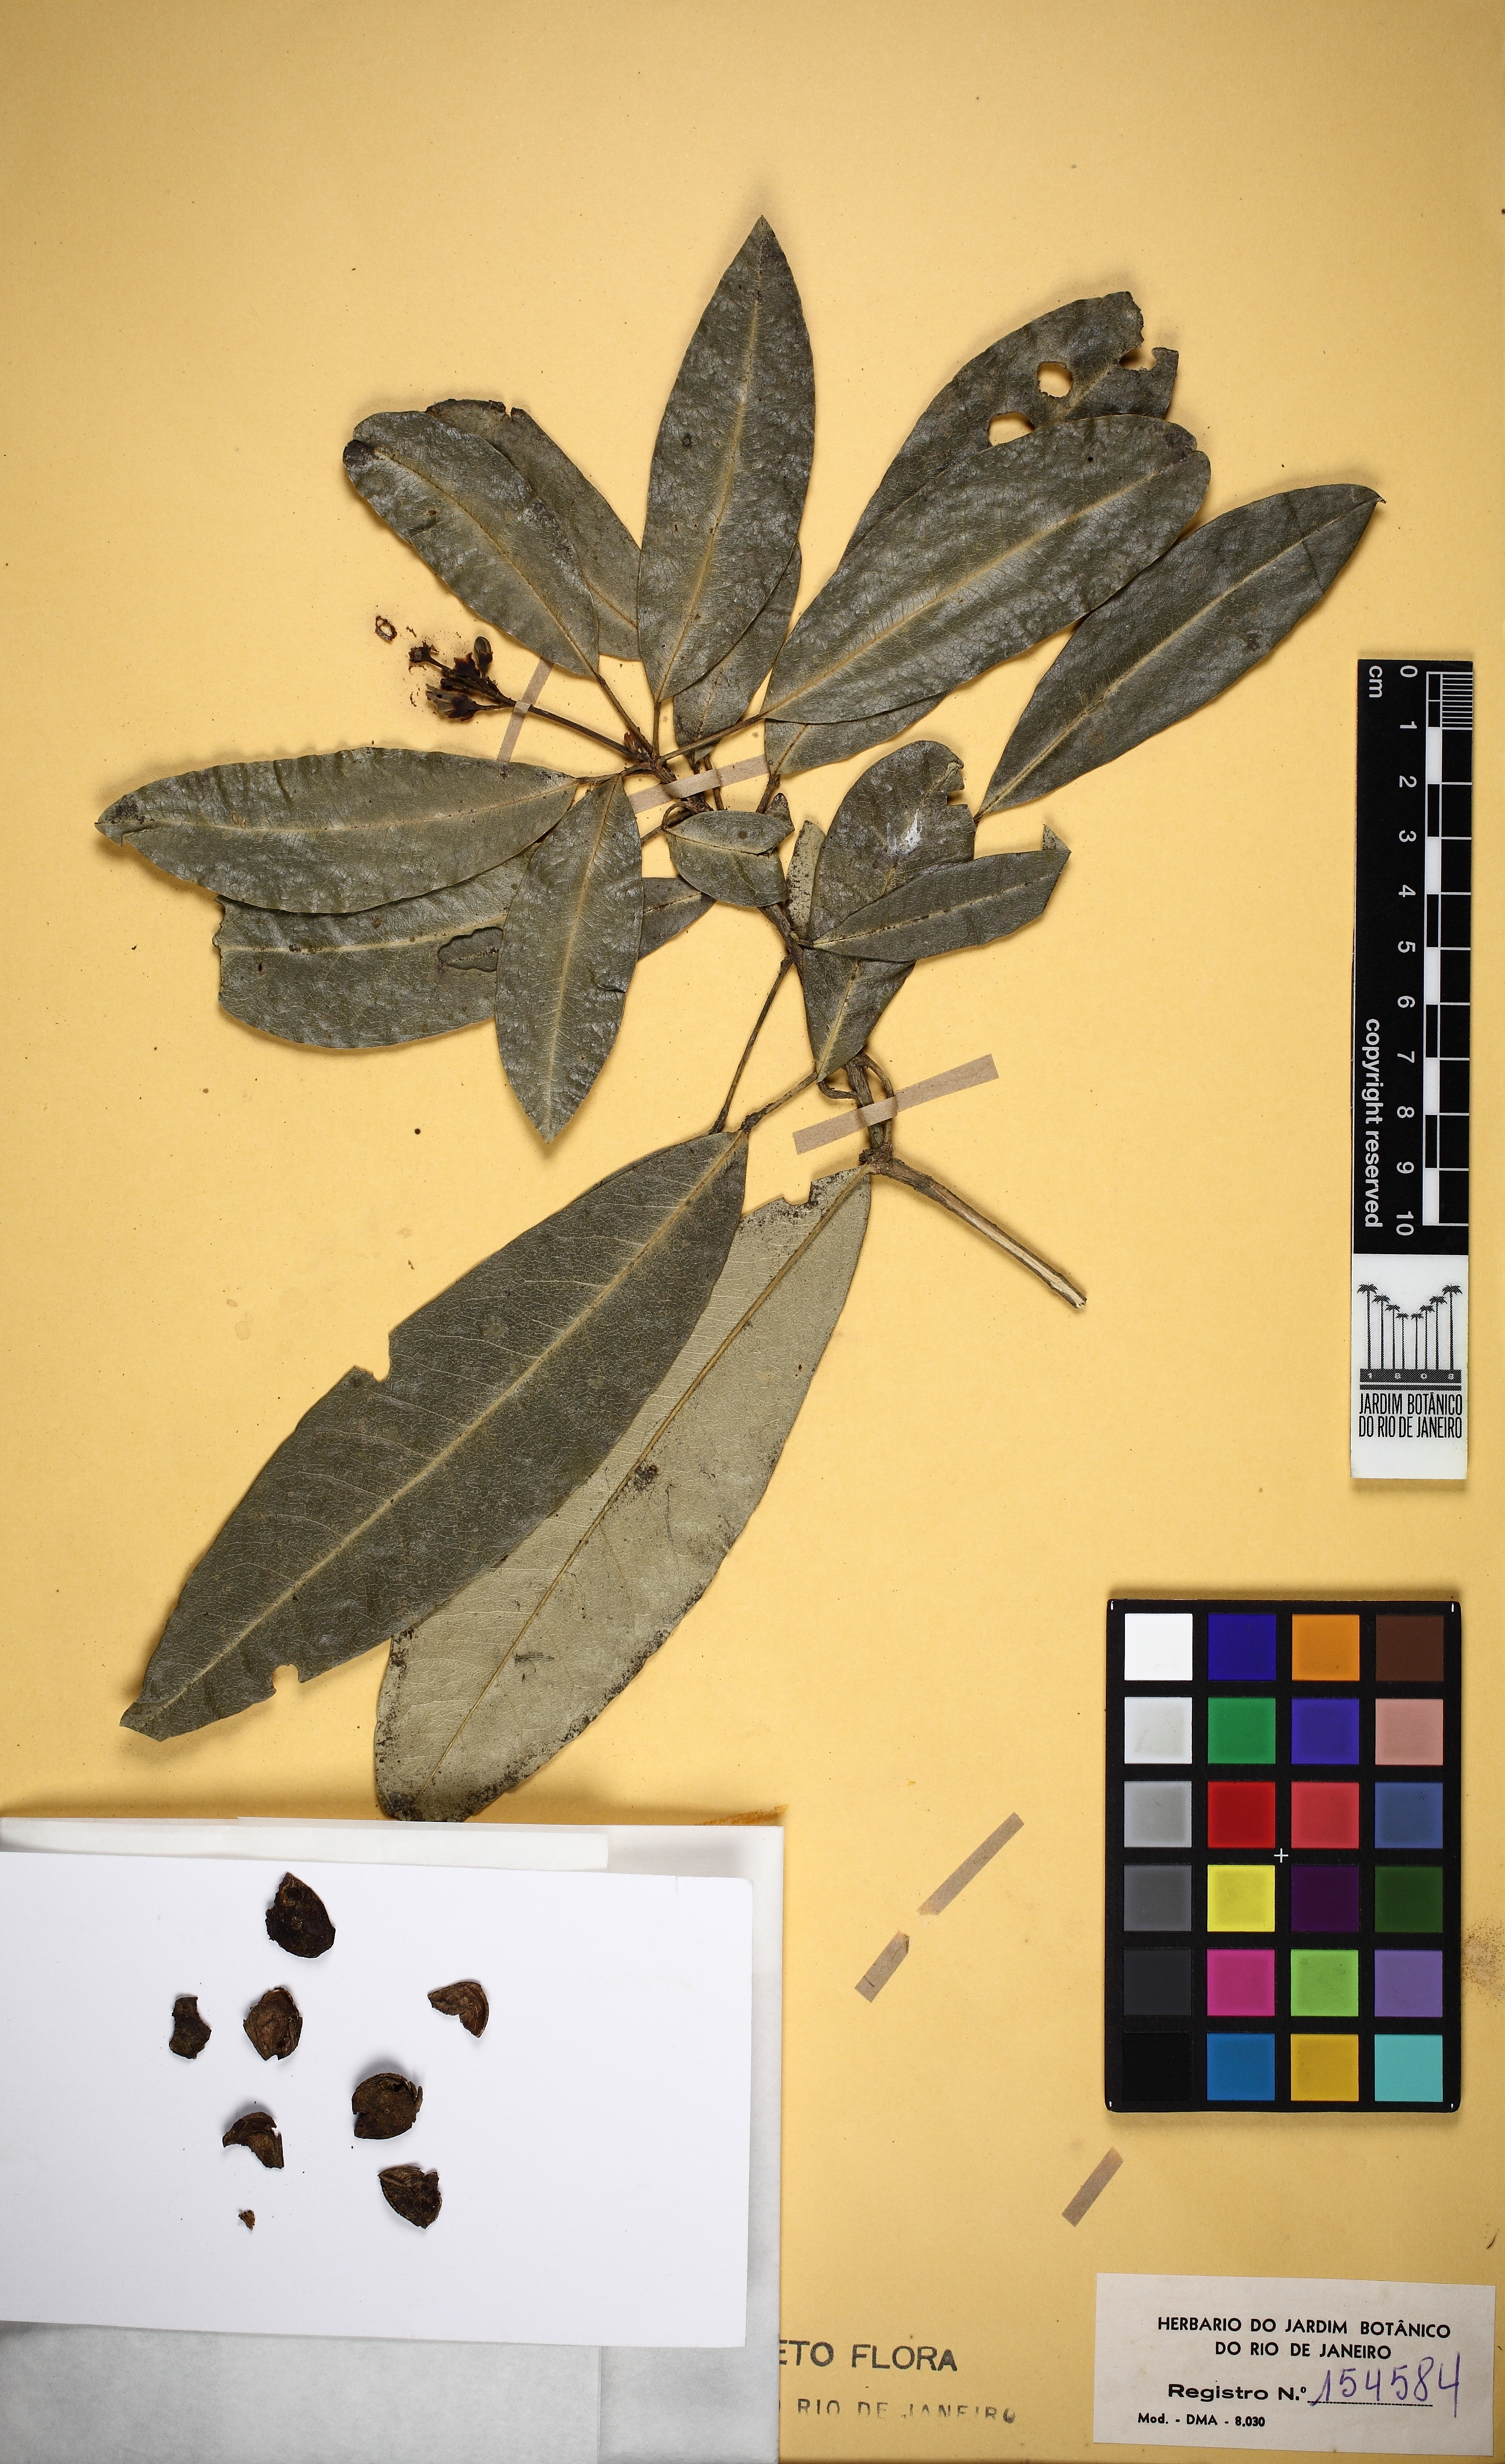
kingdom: Plantae
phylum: Tracheophyta
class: Magnoliopsida
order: Sapindales
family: Rutaceae
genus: Conchocarpus
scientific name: Conchocarpus ruber
